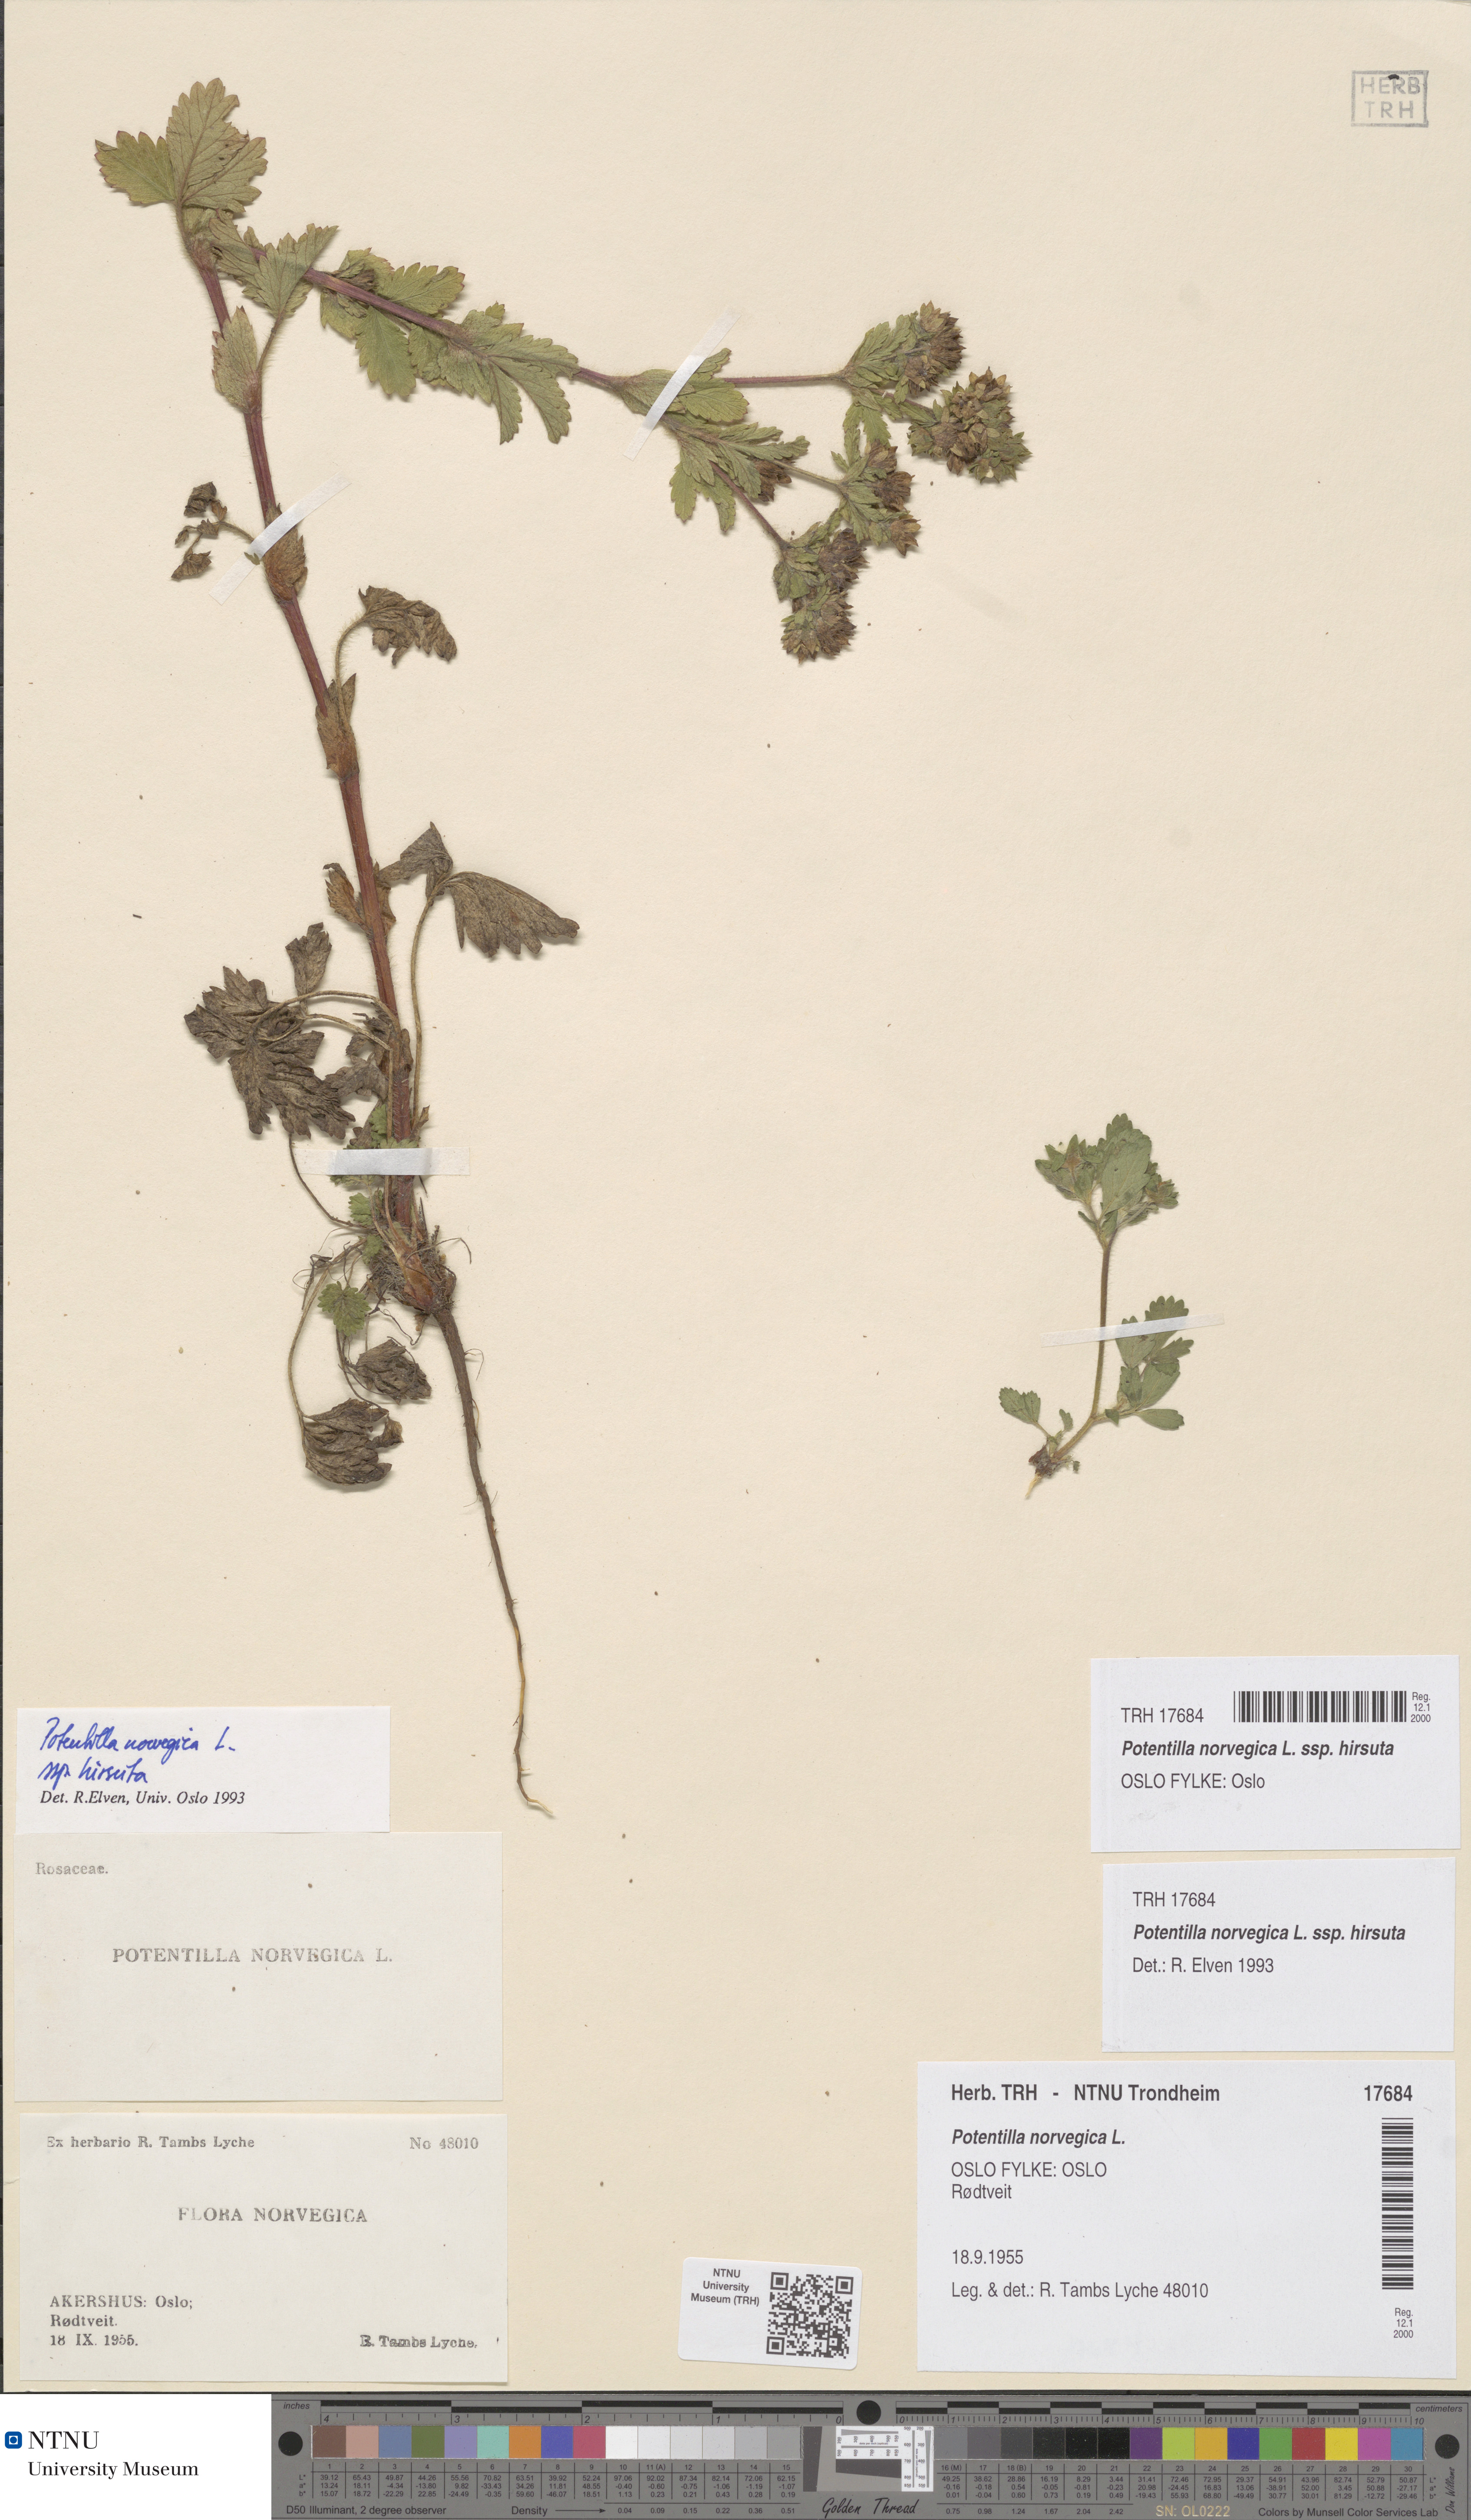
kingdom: Plantae
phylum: Tracheophyta
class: Magnoliopsida
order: Rosales
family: Rosaceae
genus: Potentilla
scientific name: Potentilla norvegica
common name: Ternate-leaved cinquefoil
